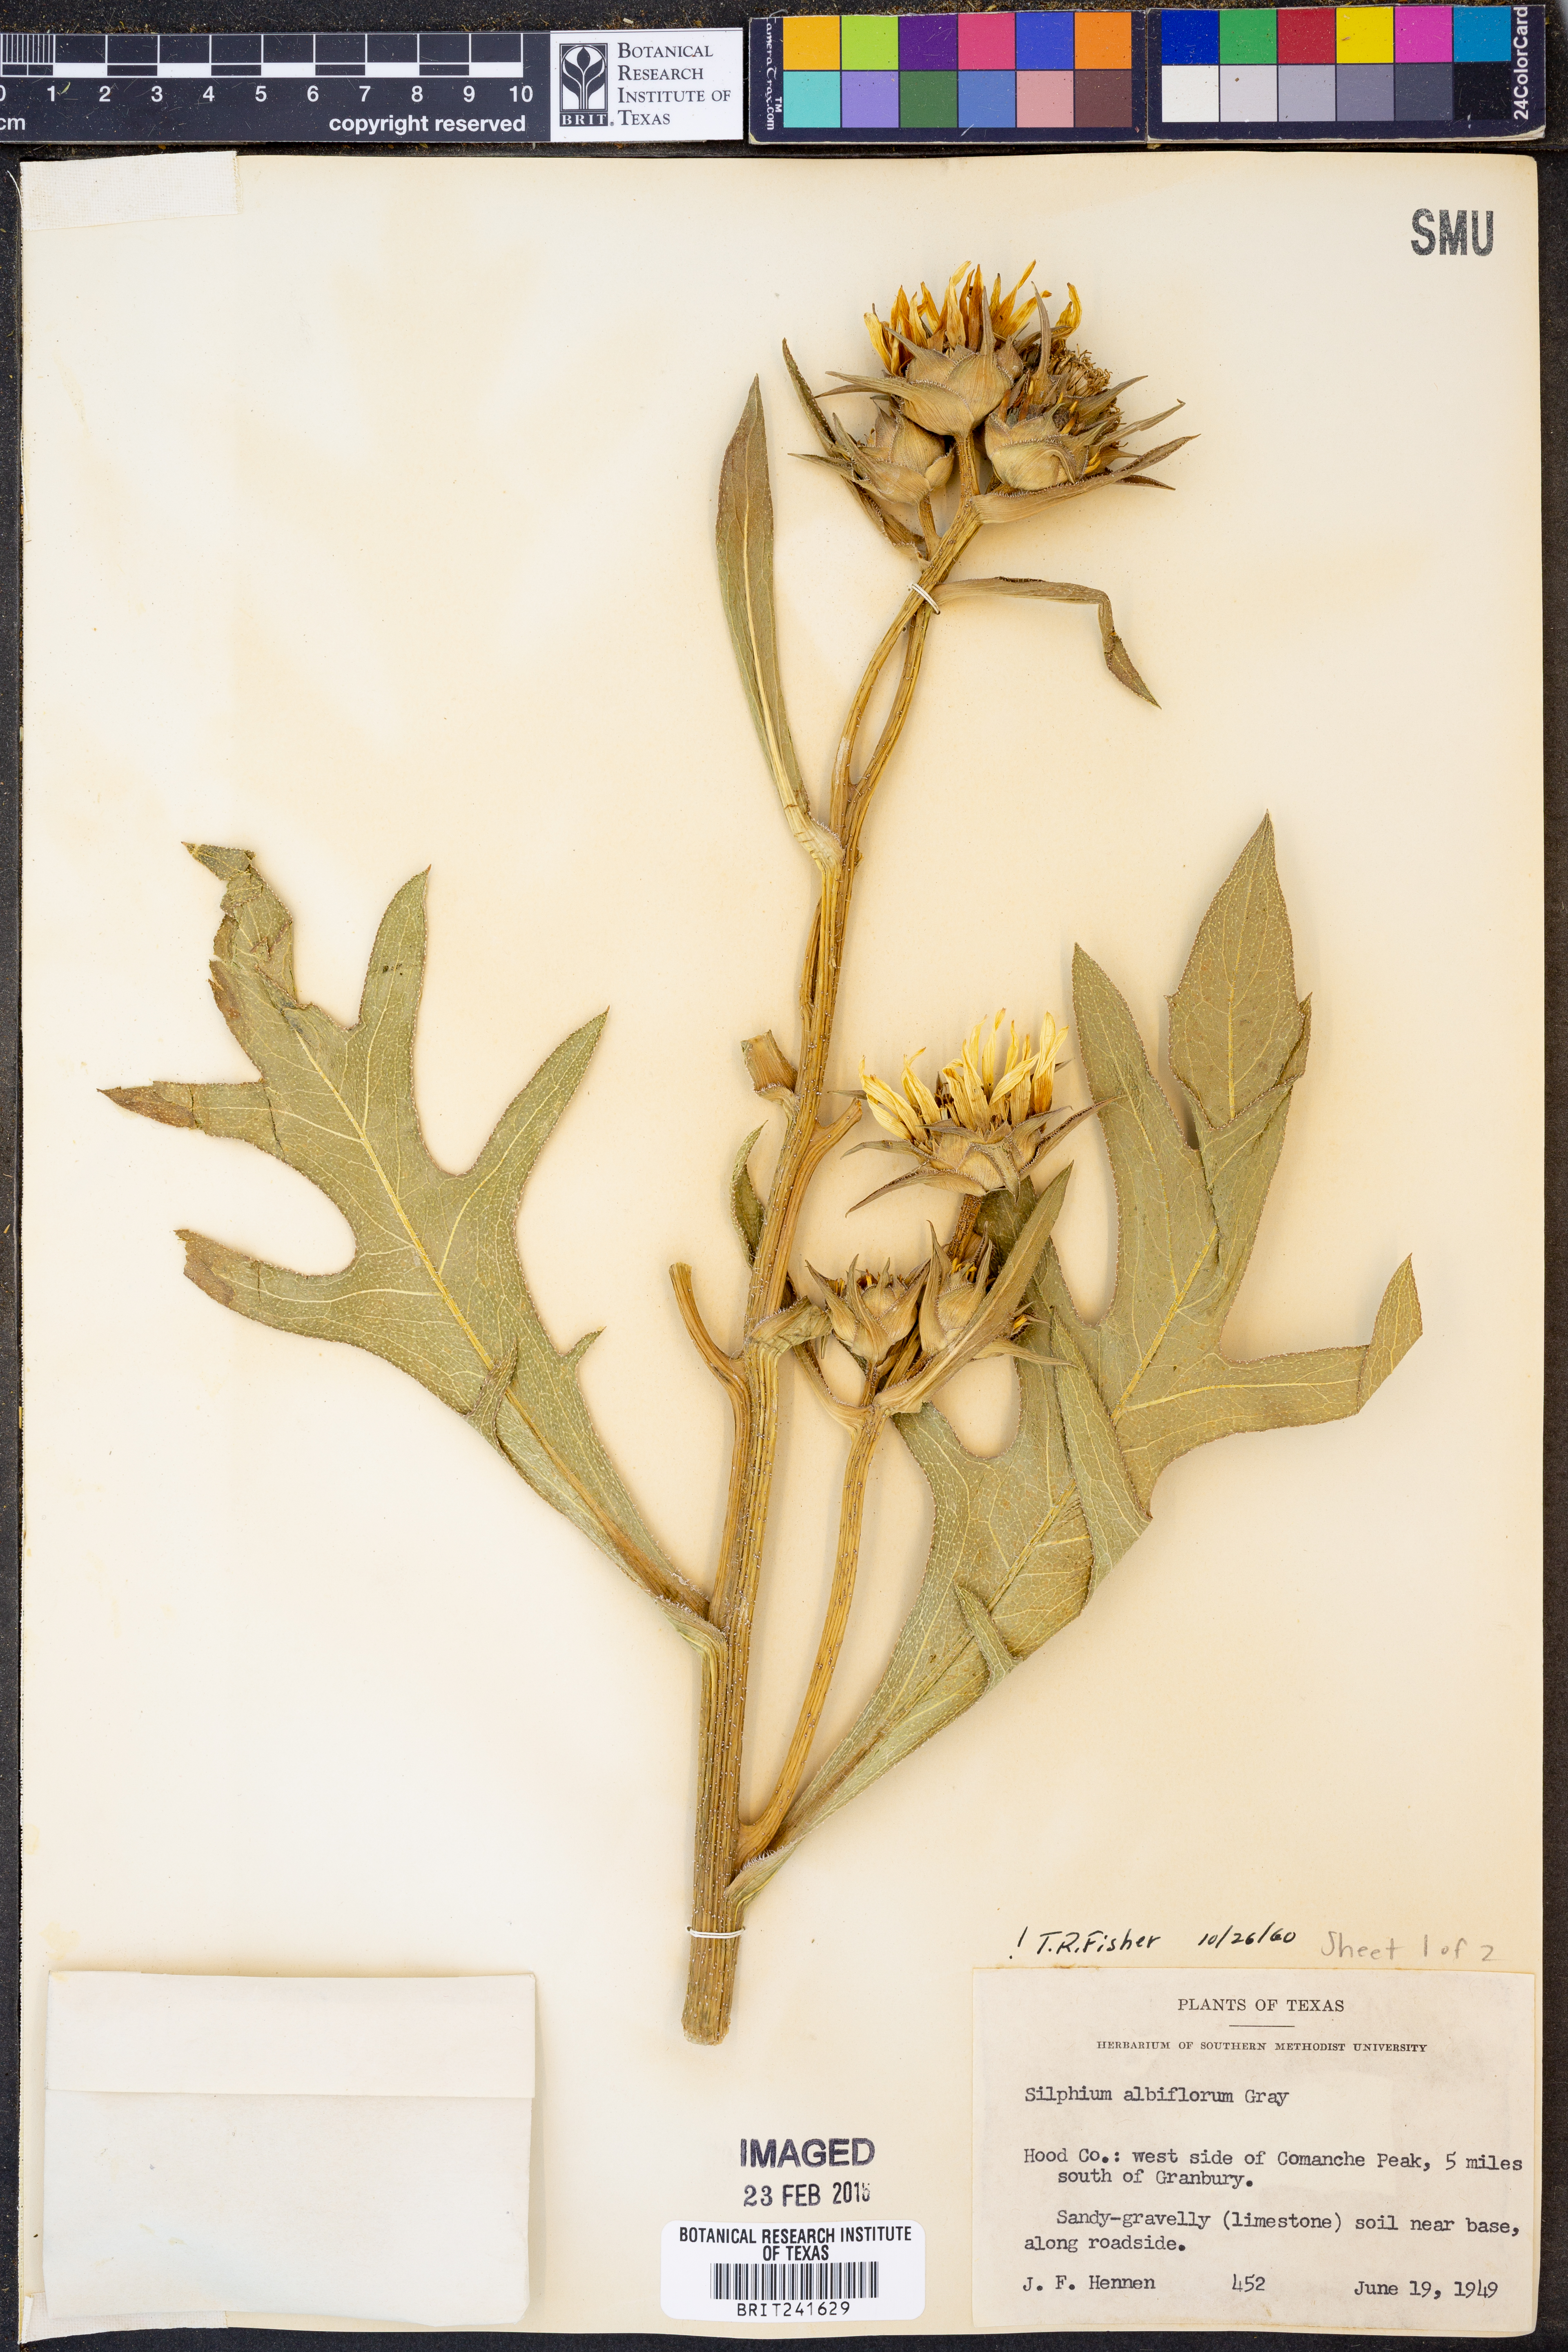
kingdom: Plantae
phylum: Tracheophyta
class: Magnoliopsida
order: Asterales
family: Asteraceae
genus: Silphium
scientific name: Silphium albiflorum
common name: White rosinweed
